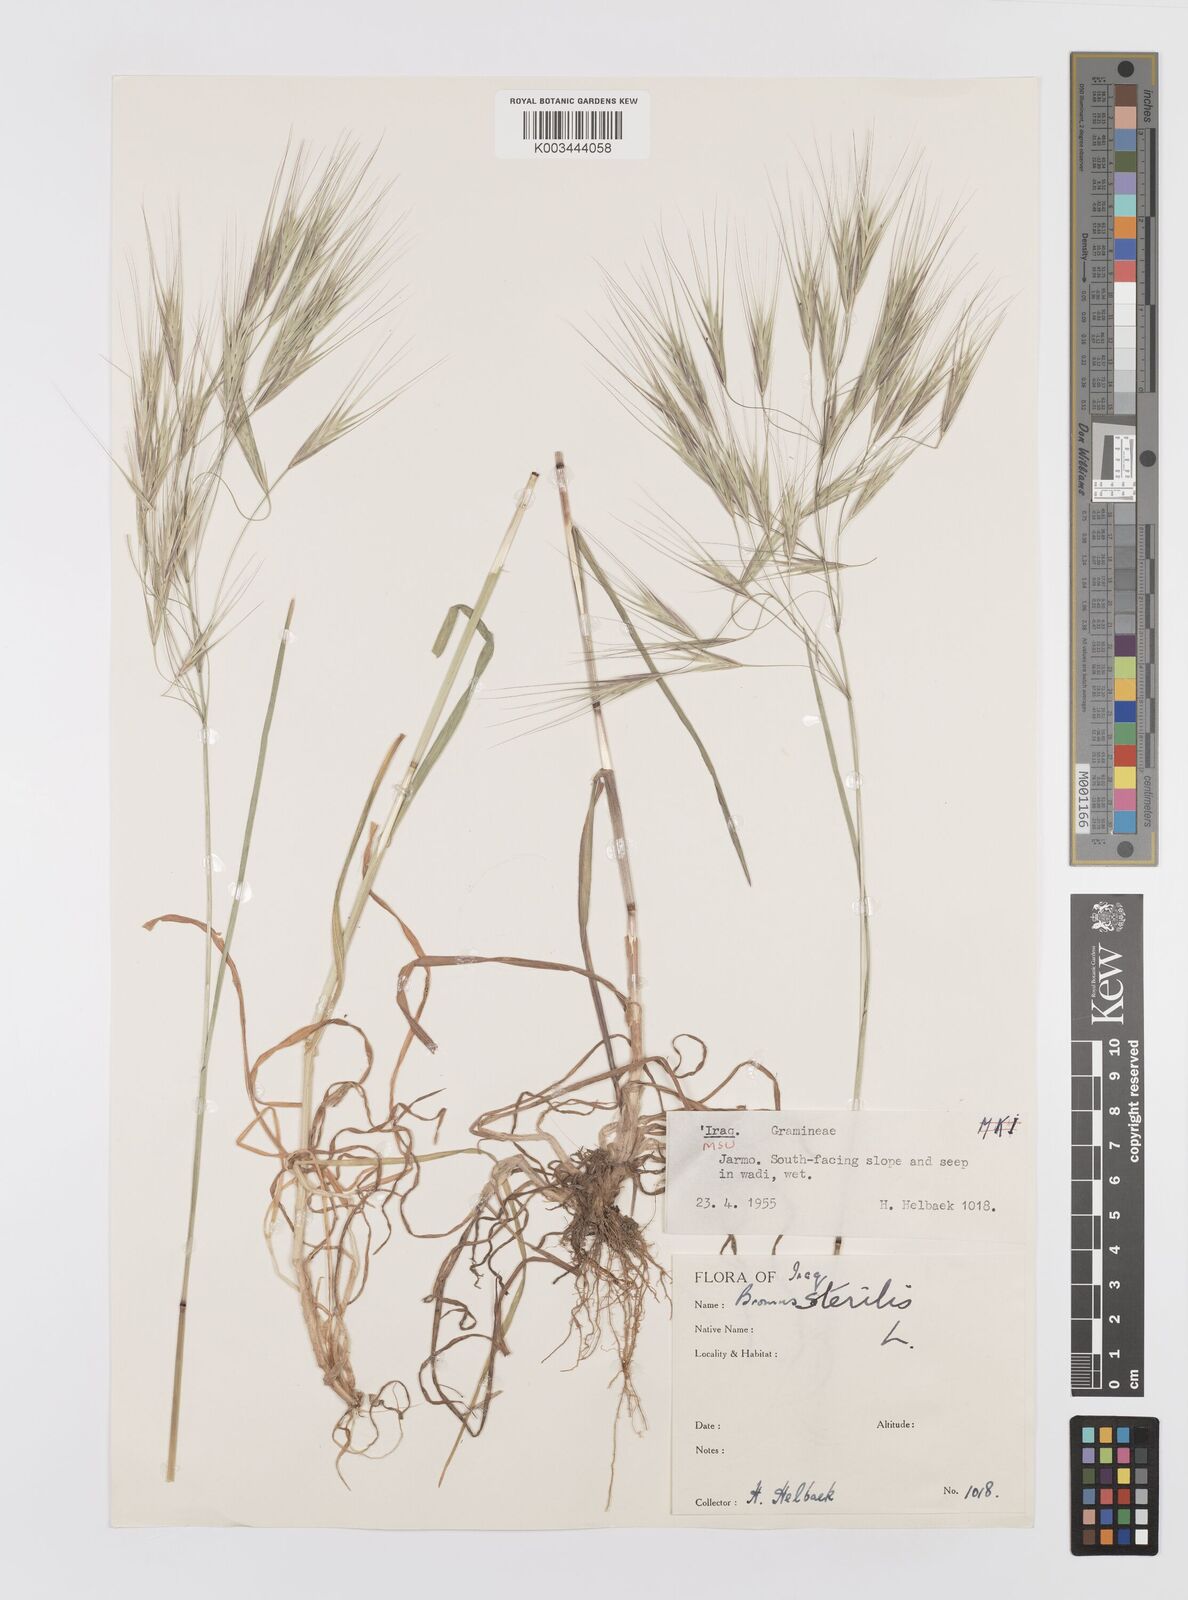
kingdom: Plantae
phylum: Tracheophyta
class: Liliopsida
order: Poales
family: Poaceae
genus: Bromus
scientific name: Bromus sterilis
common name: Poverty brome
